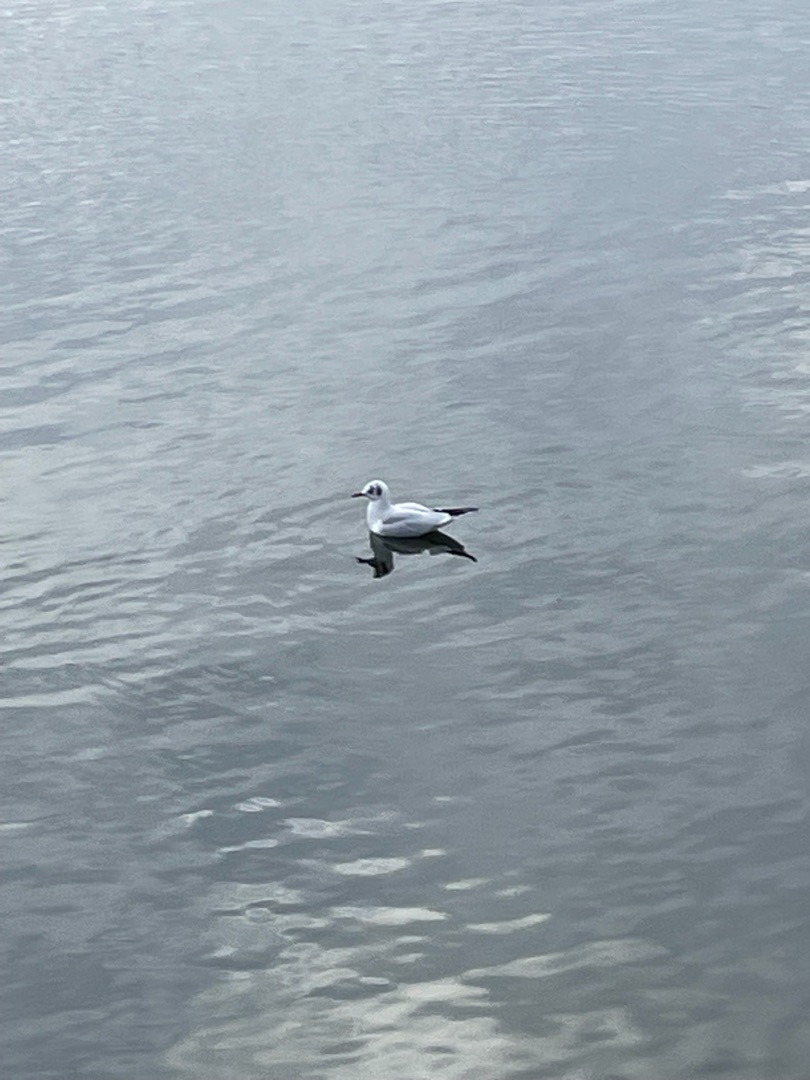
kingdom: Animalia
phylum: Chordata
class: Aves
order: Charadriiformes
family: Laridae
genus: Chroicocephalus
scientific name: Chroicocephalus ridibundus
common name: Hættemåge
